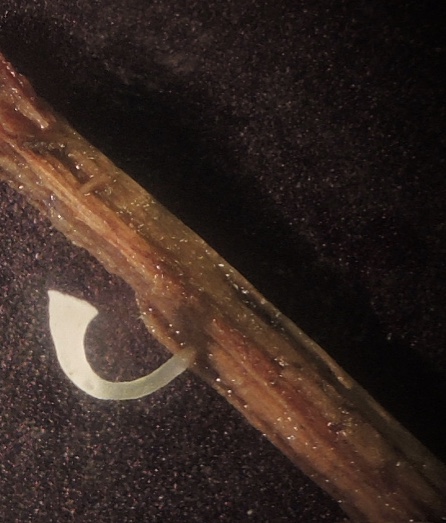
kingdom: Fungi
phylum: Basidiomycota
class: Agaricomycetes
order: Agaricales
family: Clavariaceae
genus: Clavicorona
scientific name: Clavicorona taxophila
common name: trompetkølle
